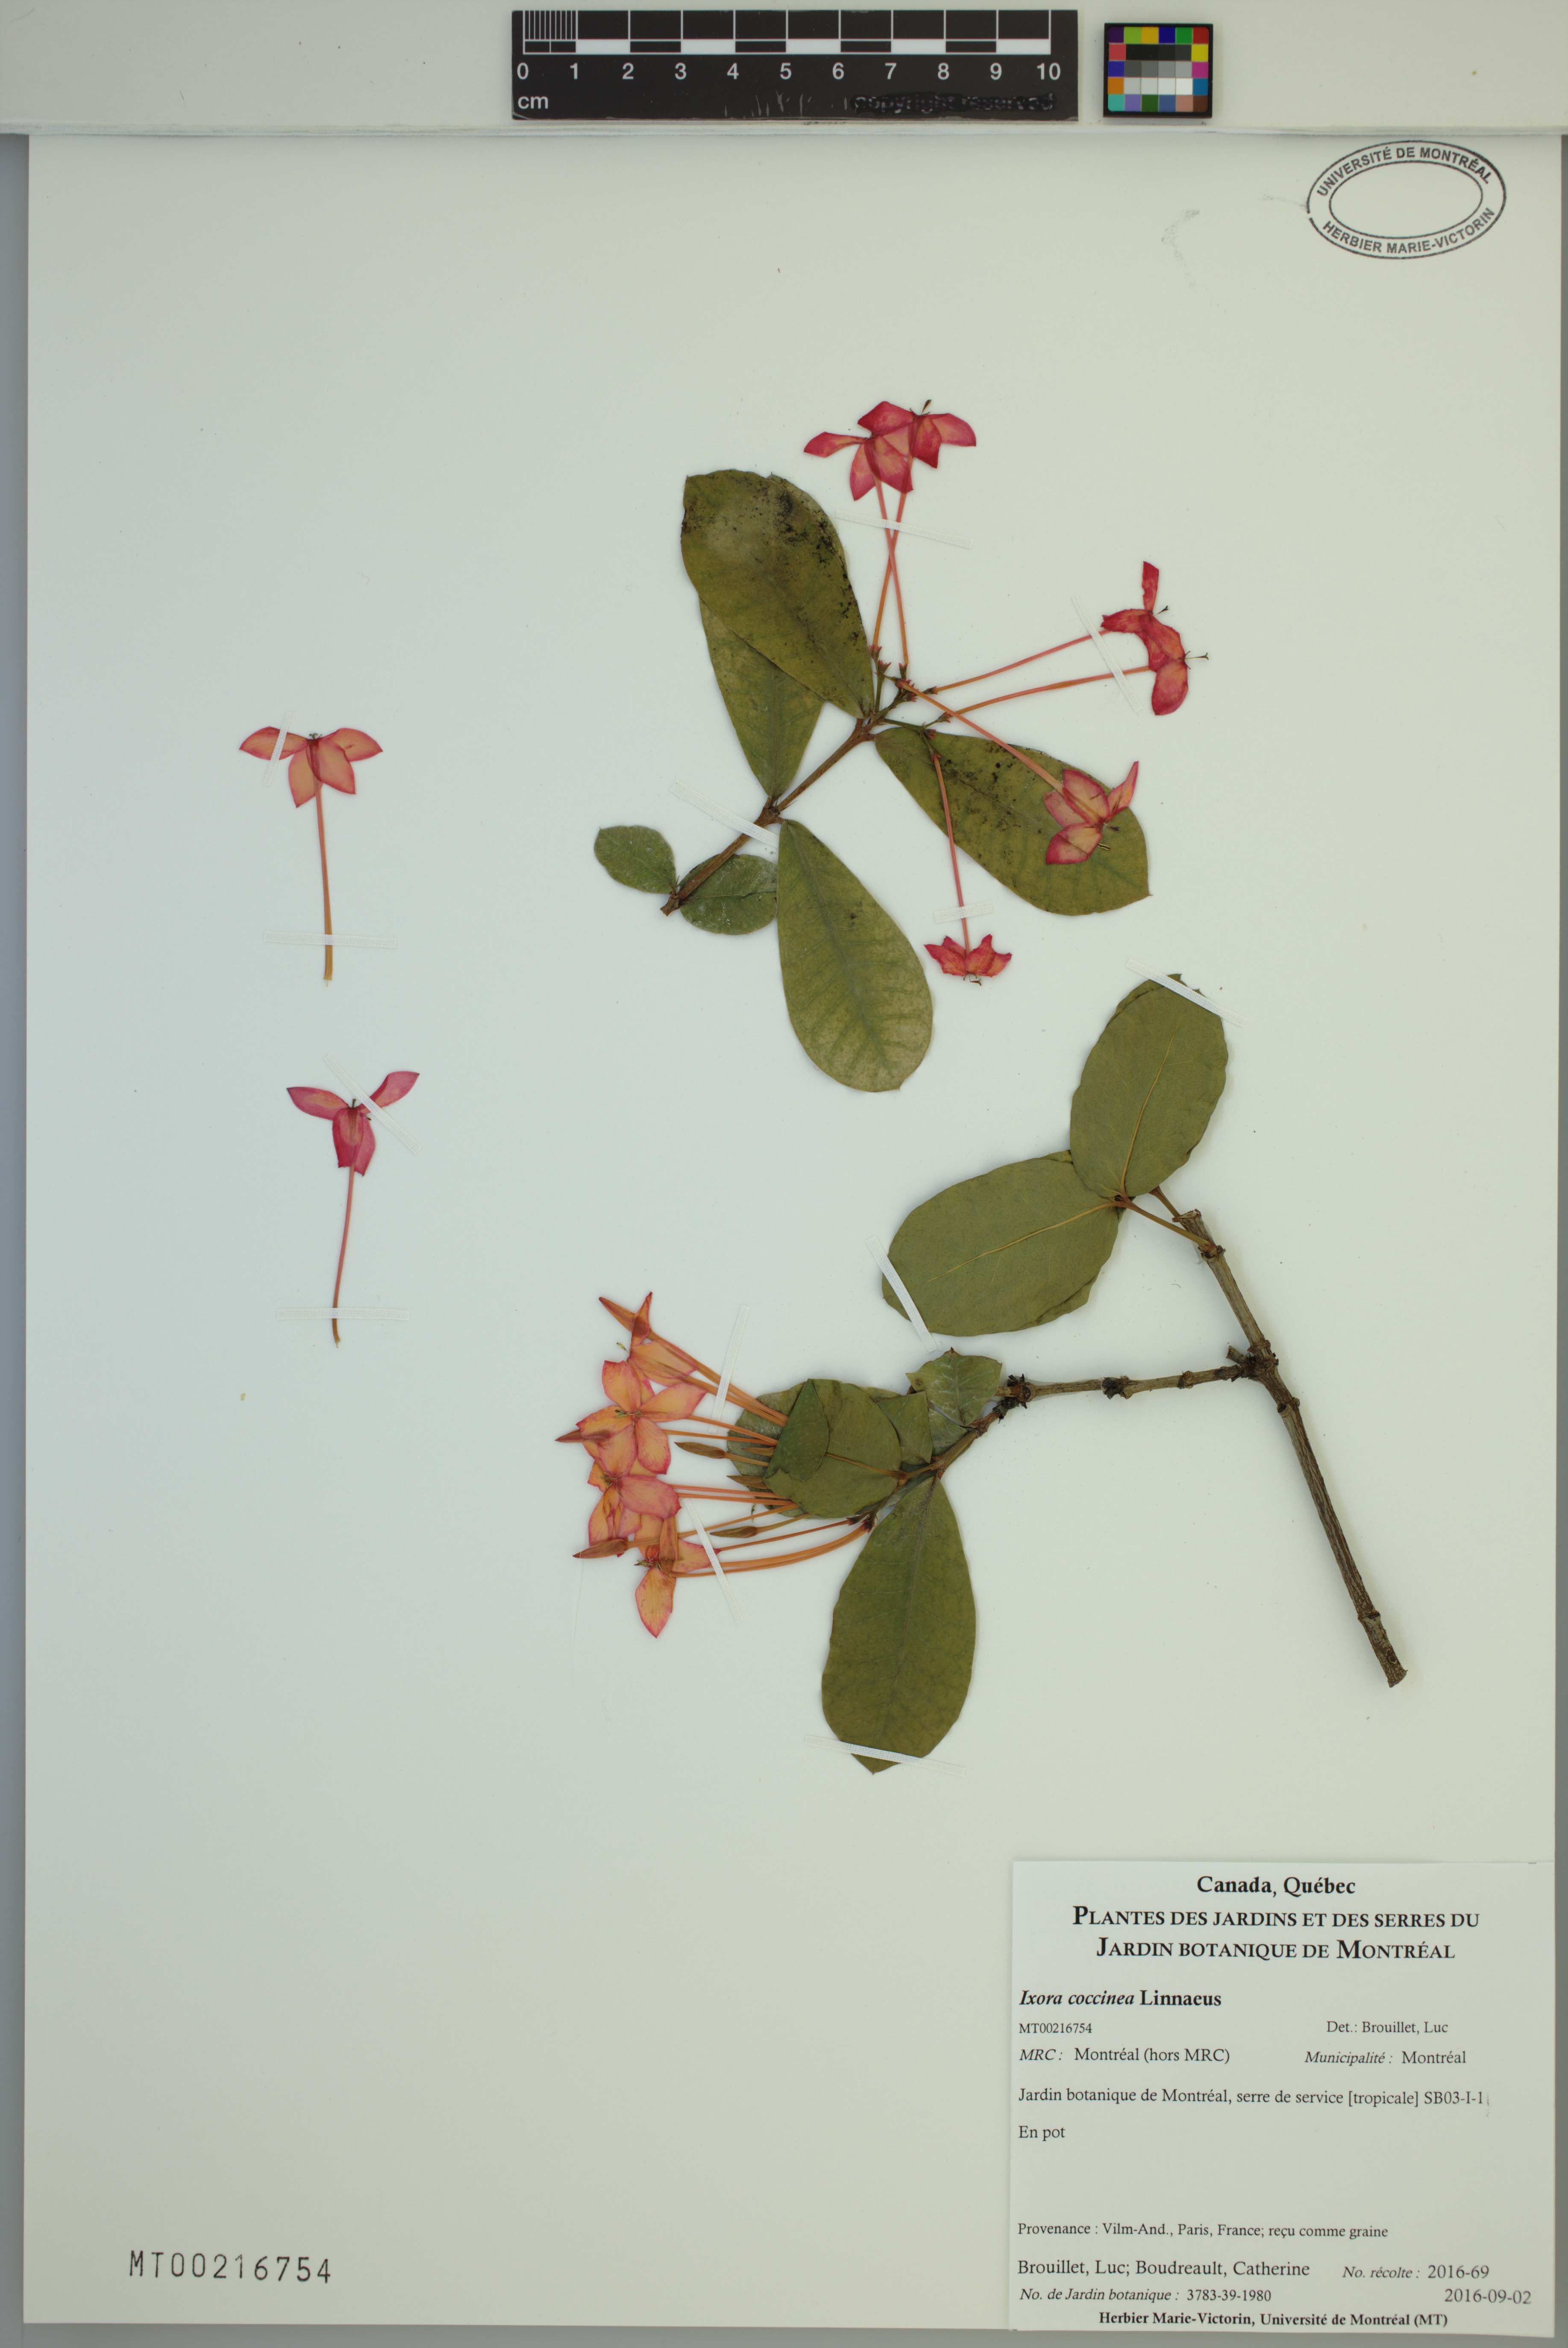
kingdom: Plantae
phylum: Tracheophyta
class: Magnoliopsida
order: Gentianales
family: Rubiaceae
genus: Ixora
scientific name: Ixora coccinea
